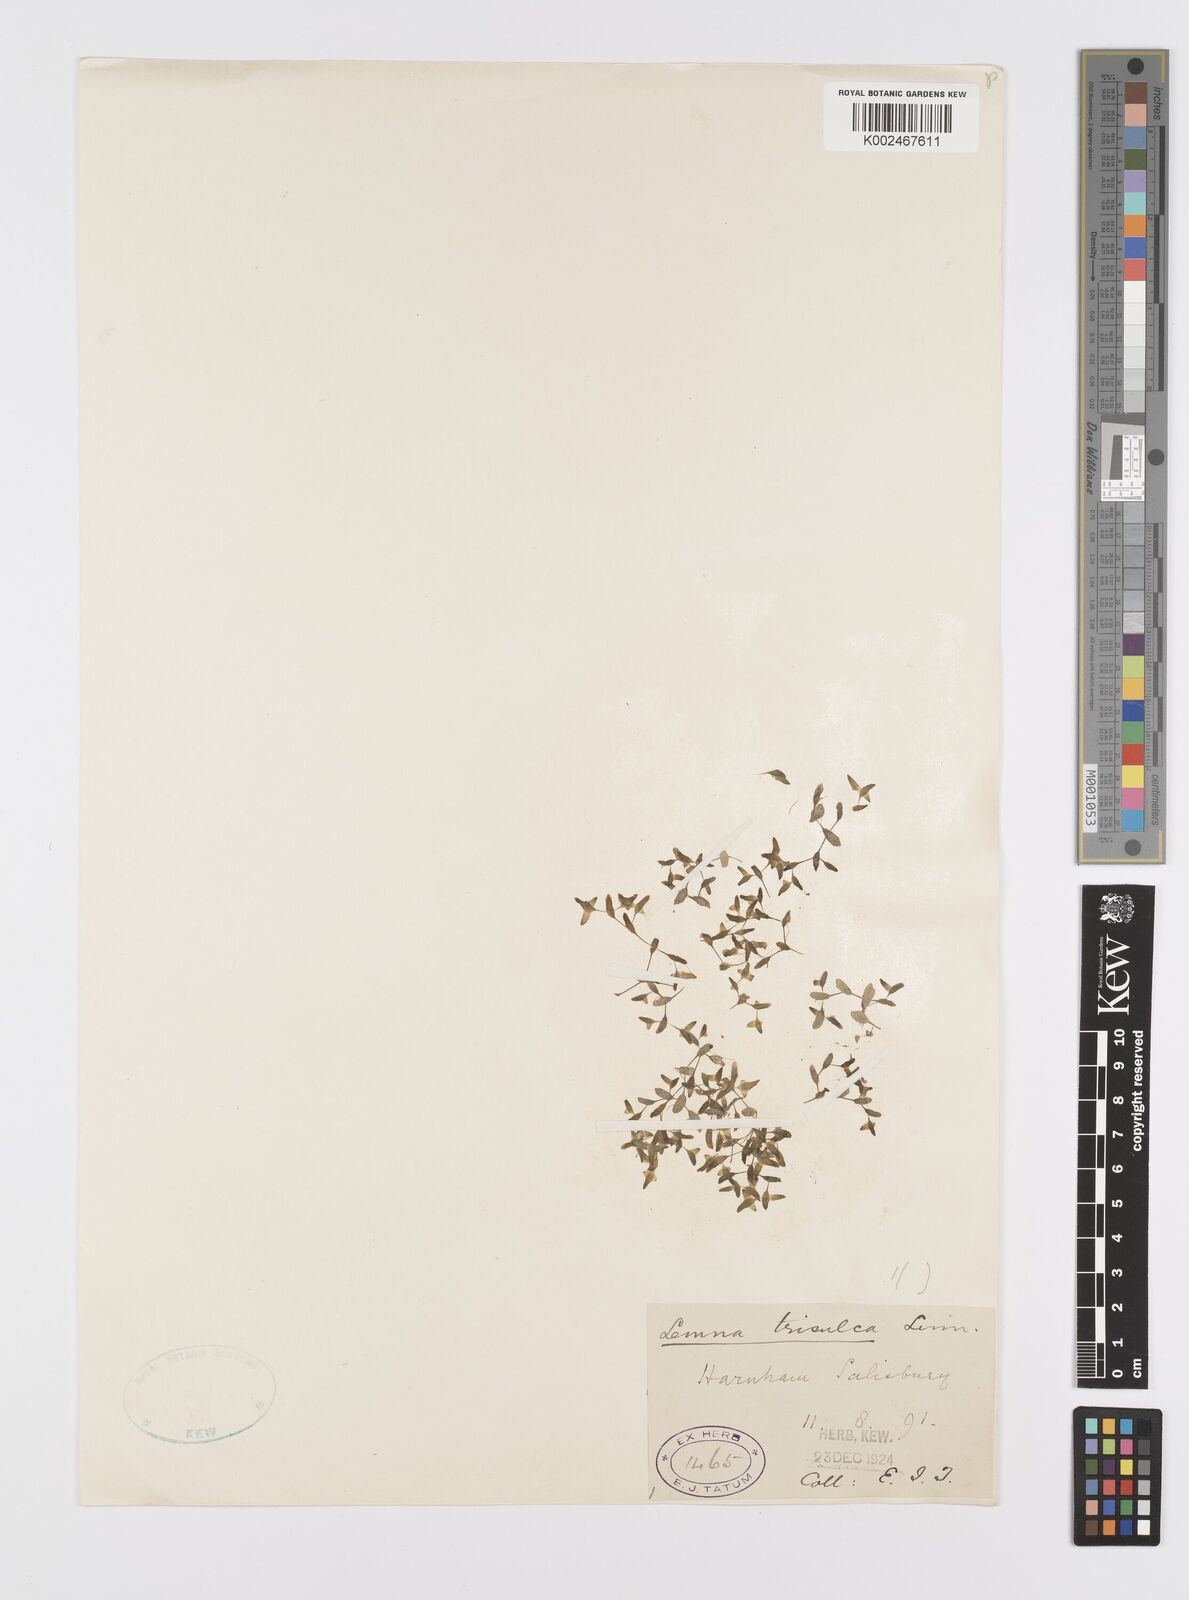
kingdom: Plantae
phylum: Tracheophyta
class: Liliopsida
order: Alismatales
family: Araceae
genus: Lemna
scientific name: Lemna trisulca
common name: Ivy-leaved duckweed
